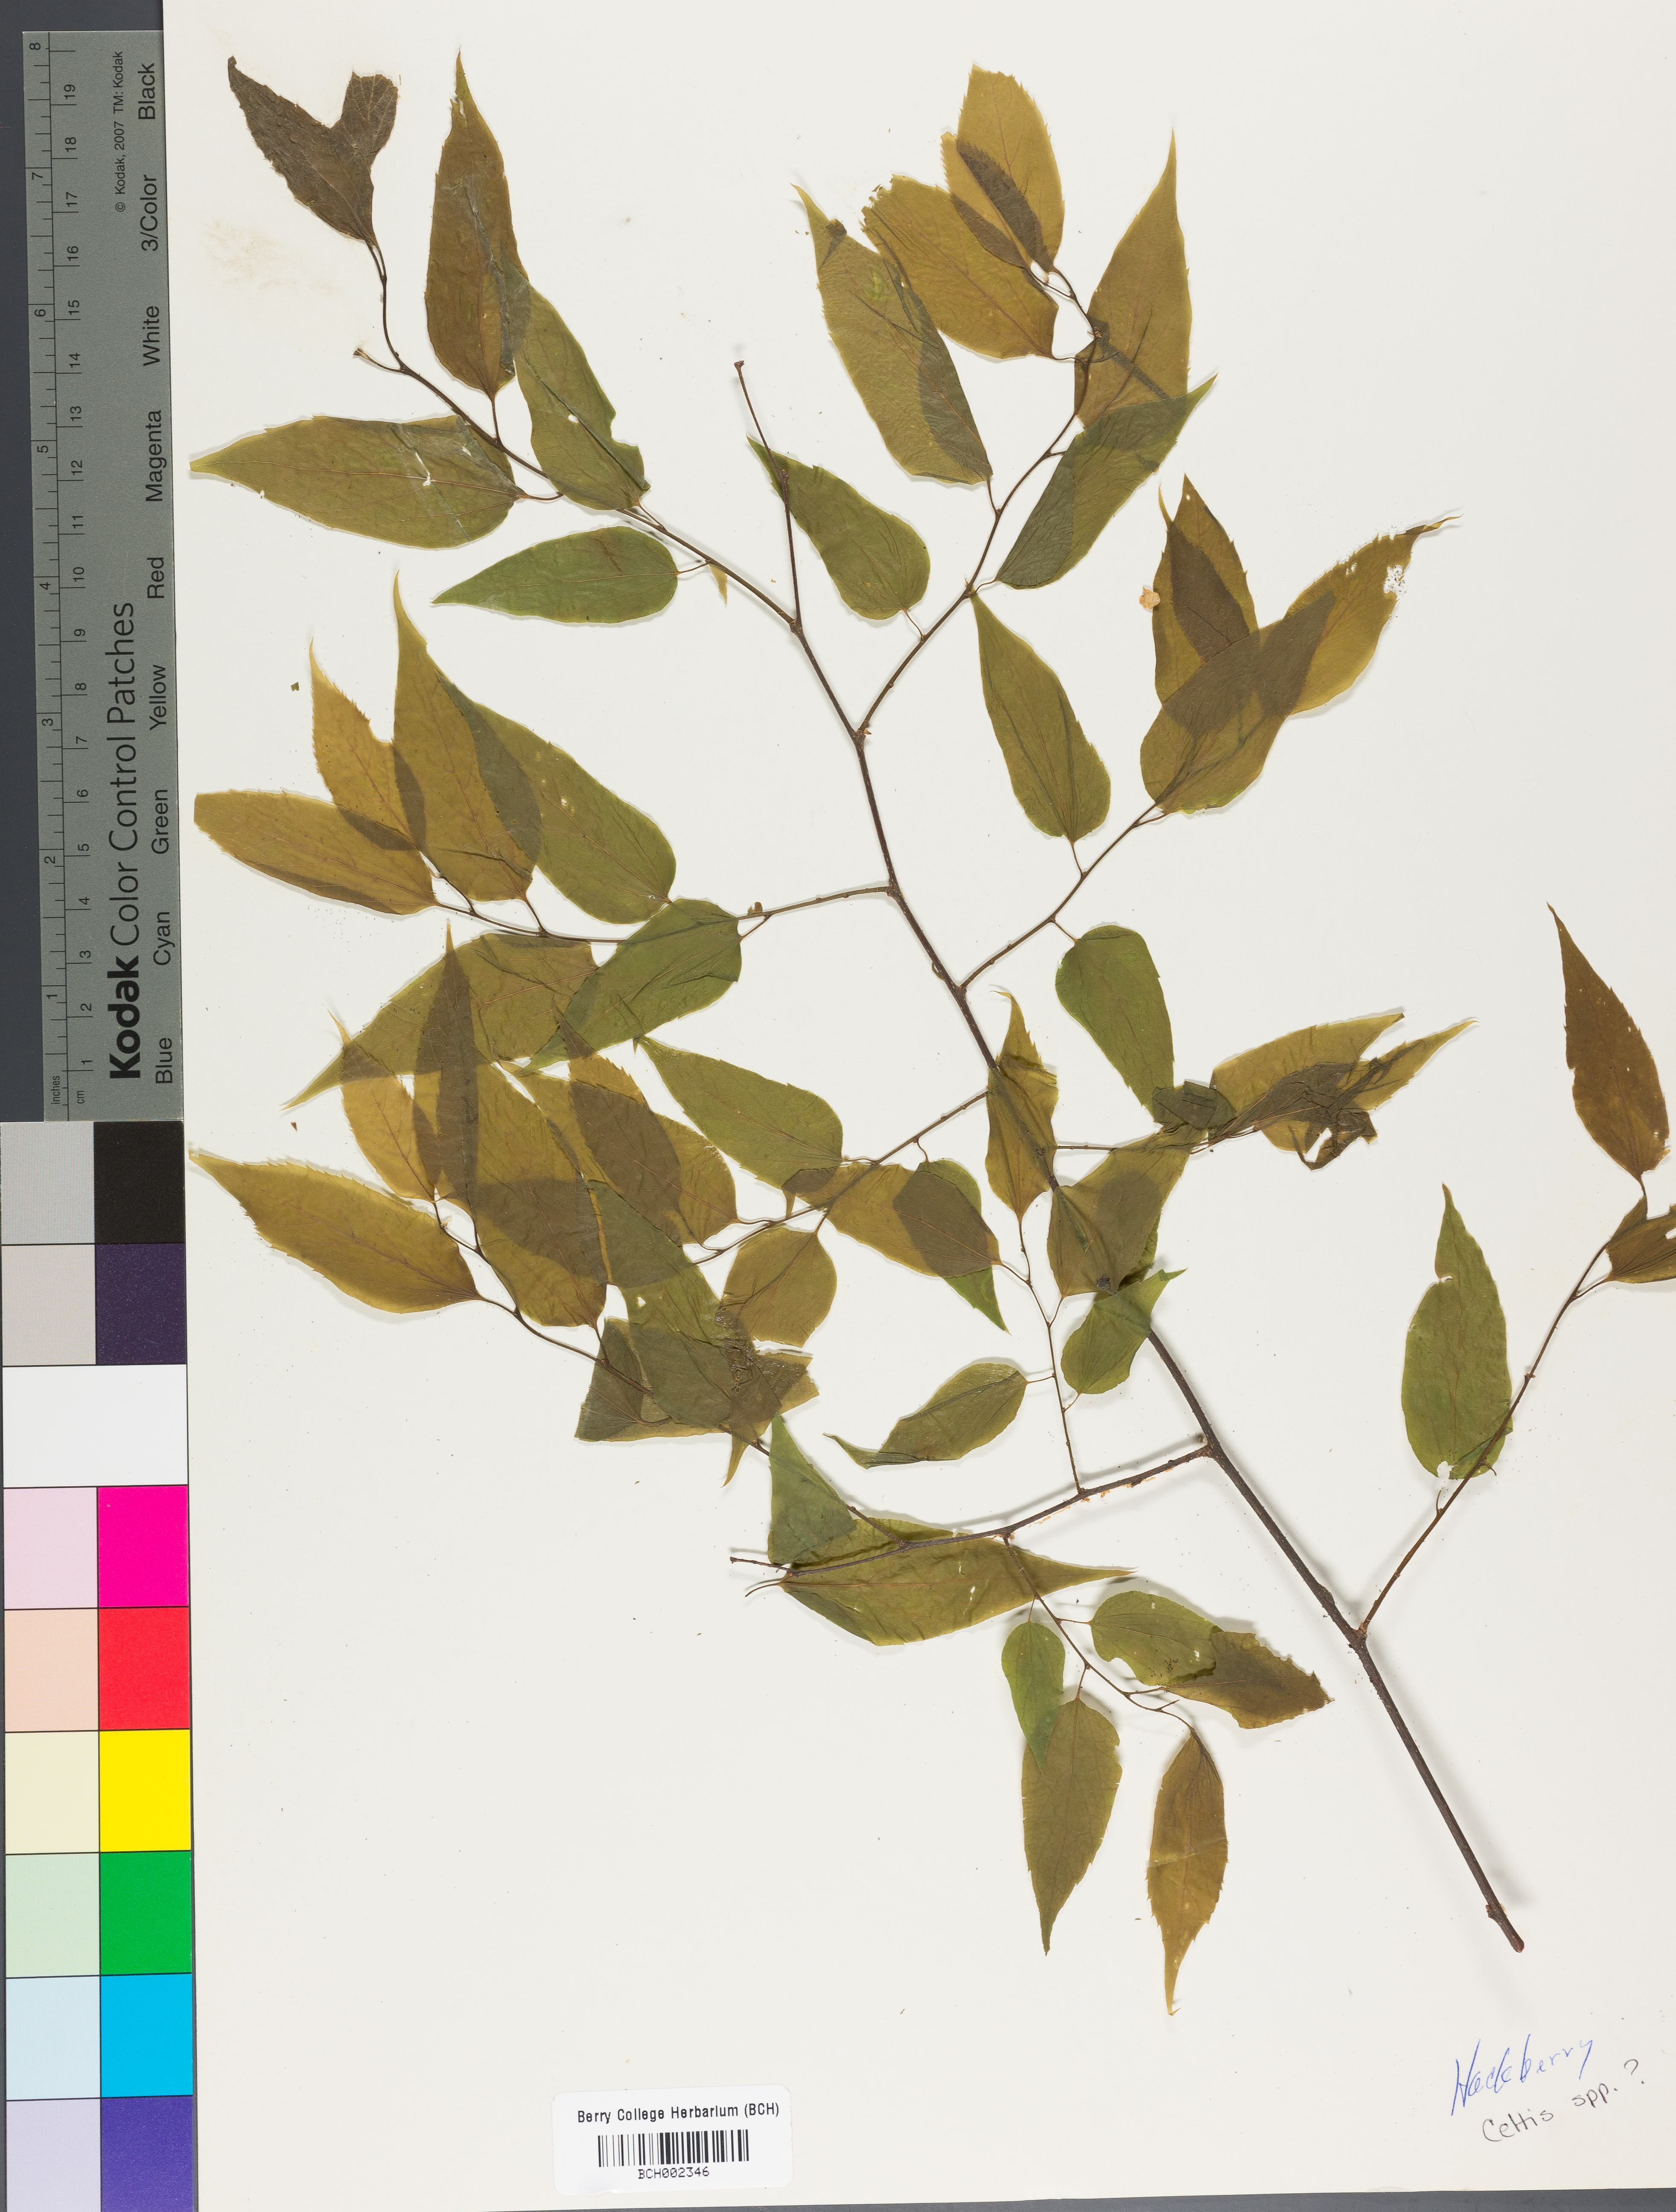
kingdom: Plantae
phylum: Tracheophyta
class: Magnoliopsida
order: Rosales
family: Cannabaceae
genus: Celtis
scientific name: Celtis
